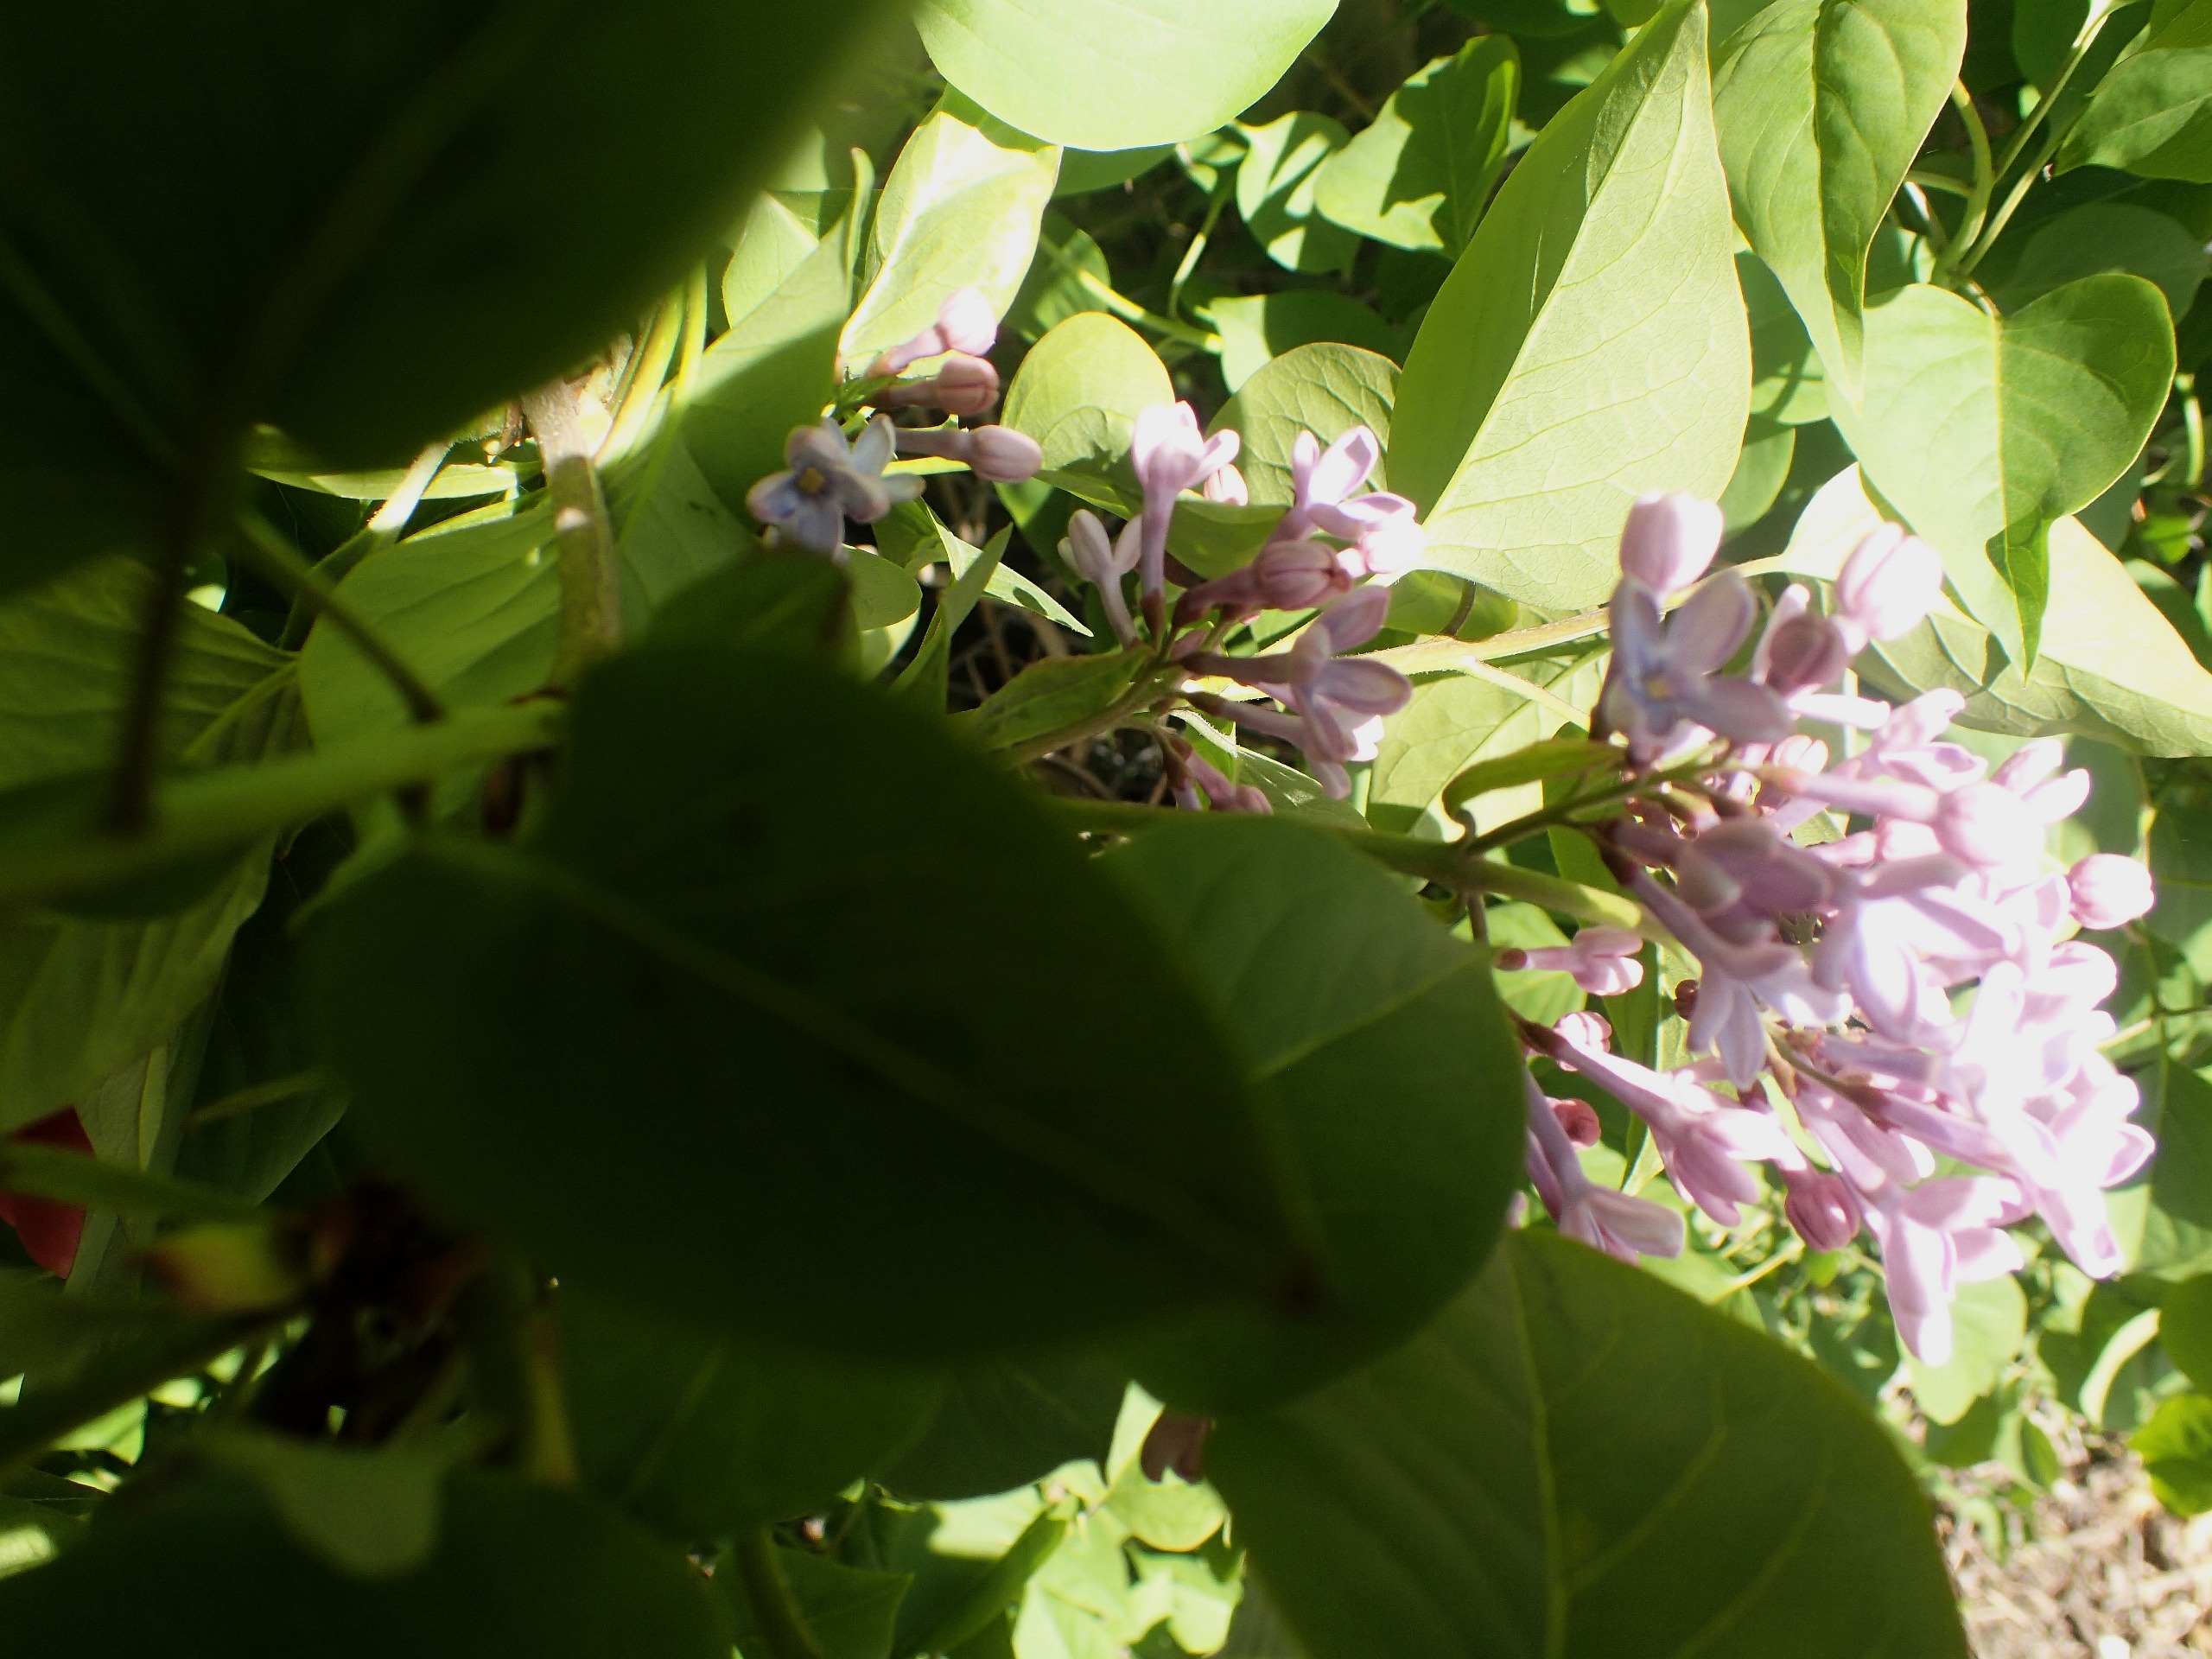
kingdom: Plantae
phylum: Tracheophyta
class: Magnoliopsida
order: Lamiales
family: Oleaceae
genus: Syringa
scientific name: Syringa vulgaris
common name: Syren
